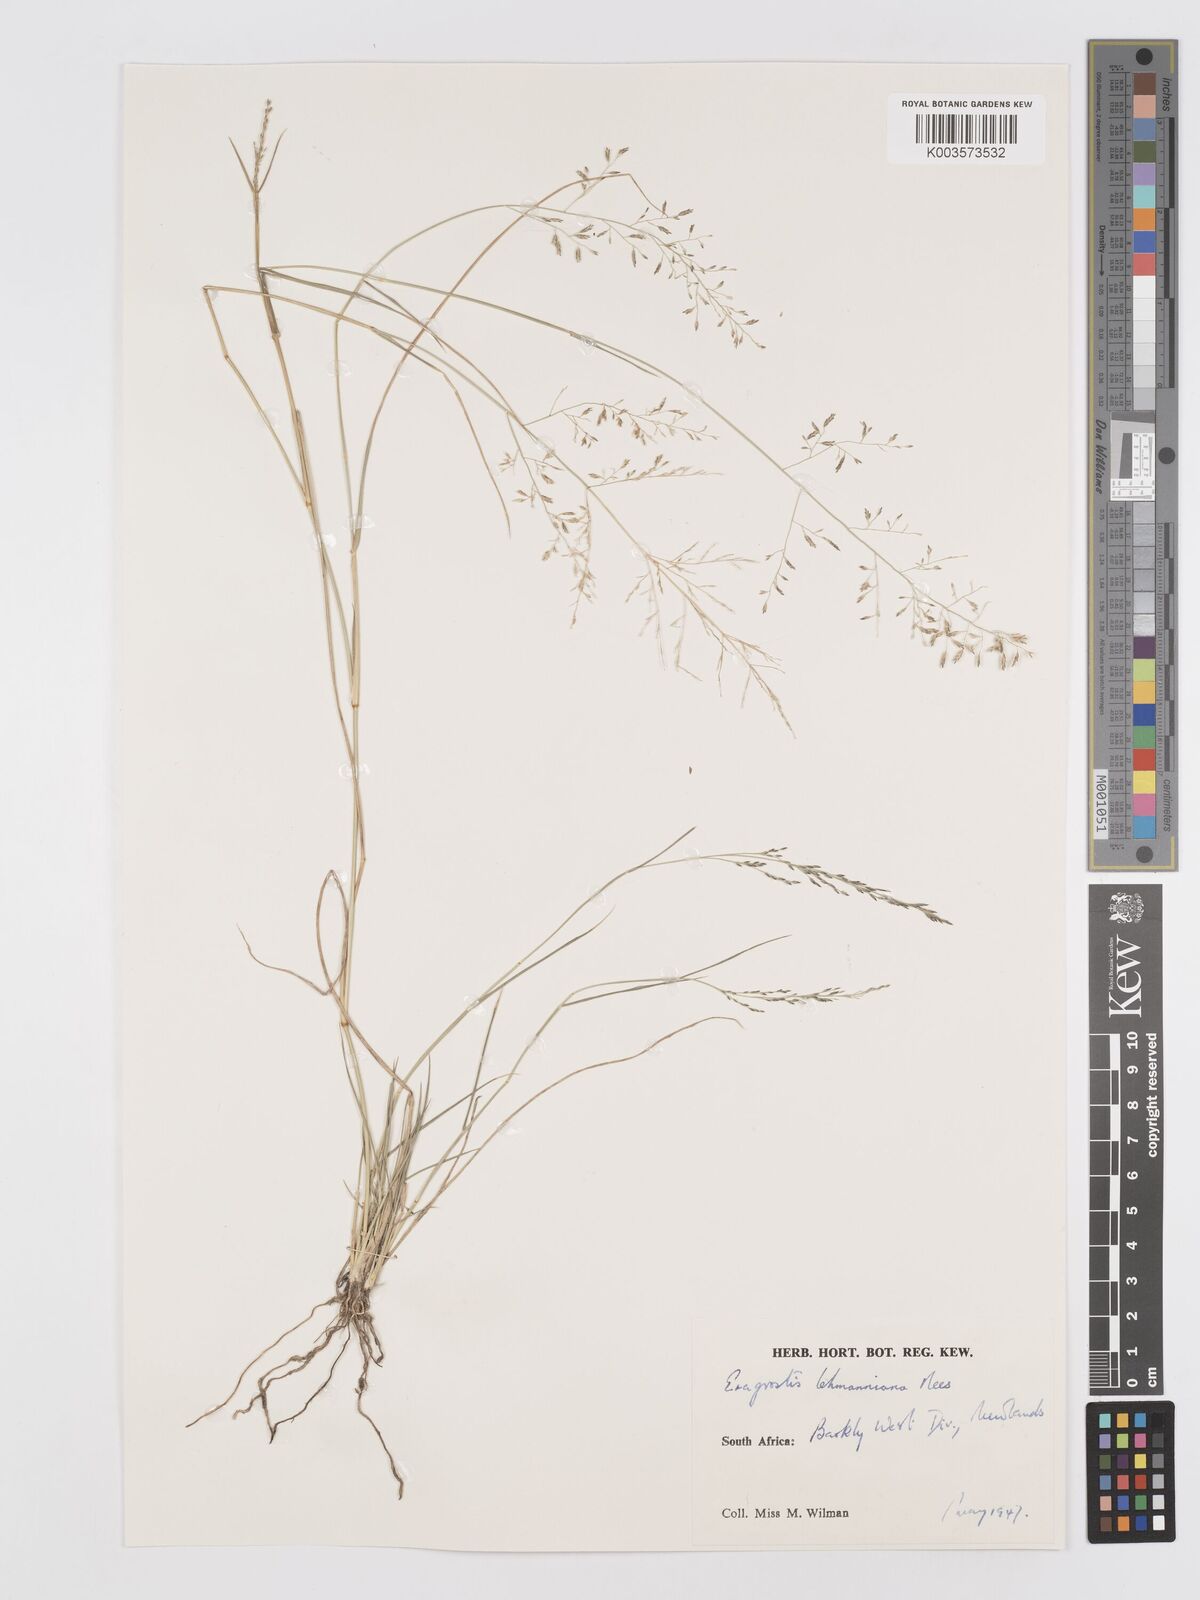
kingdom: Plantae
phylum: Tracheophyta
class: Liliopsida
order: Poales
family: Poaceae
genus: Eragrostis
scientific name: Eragrostis lehmanniana
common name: Lehmann lovegrass
